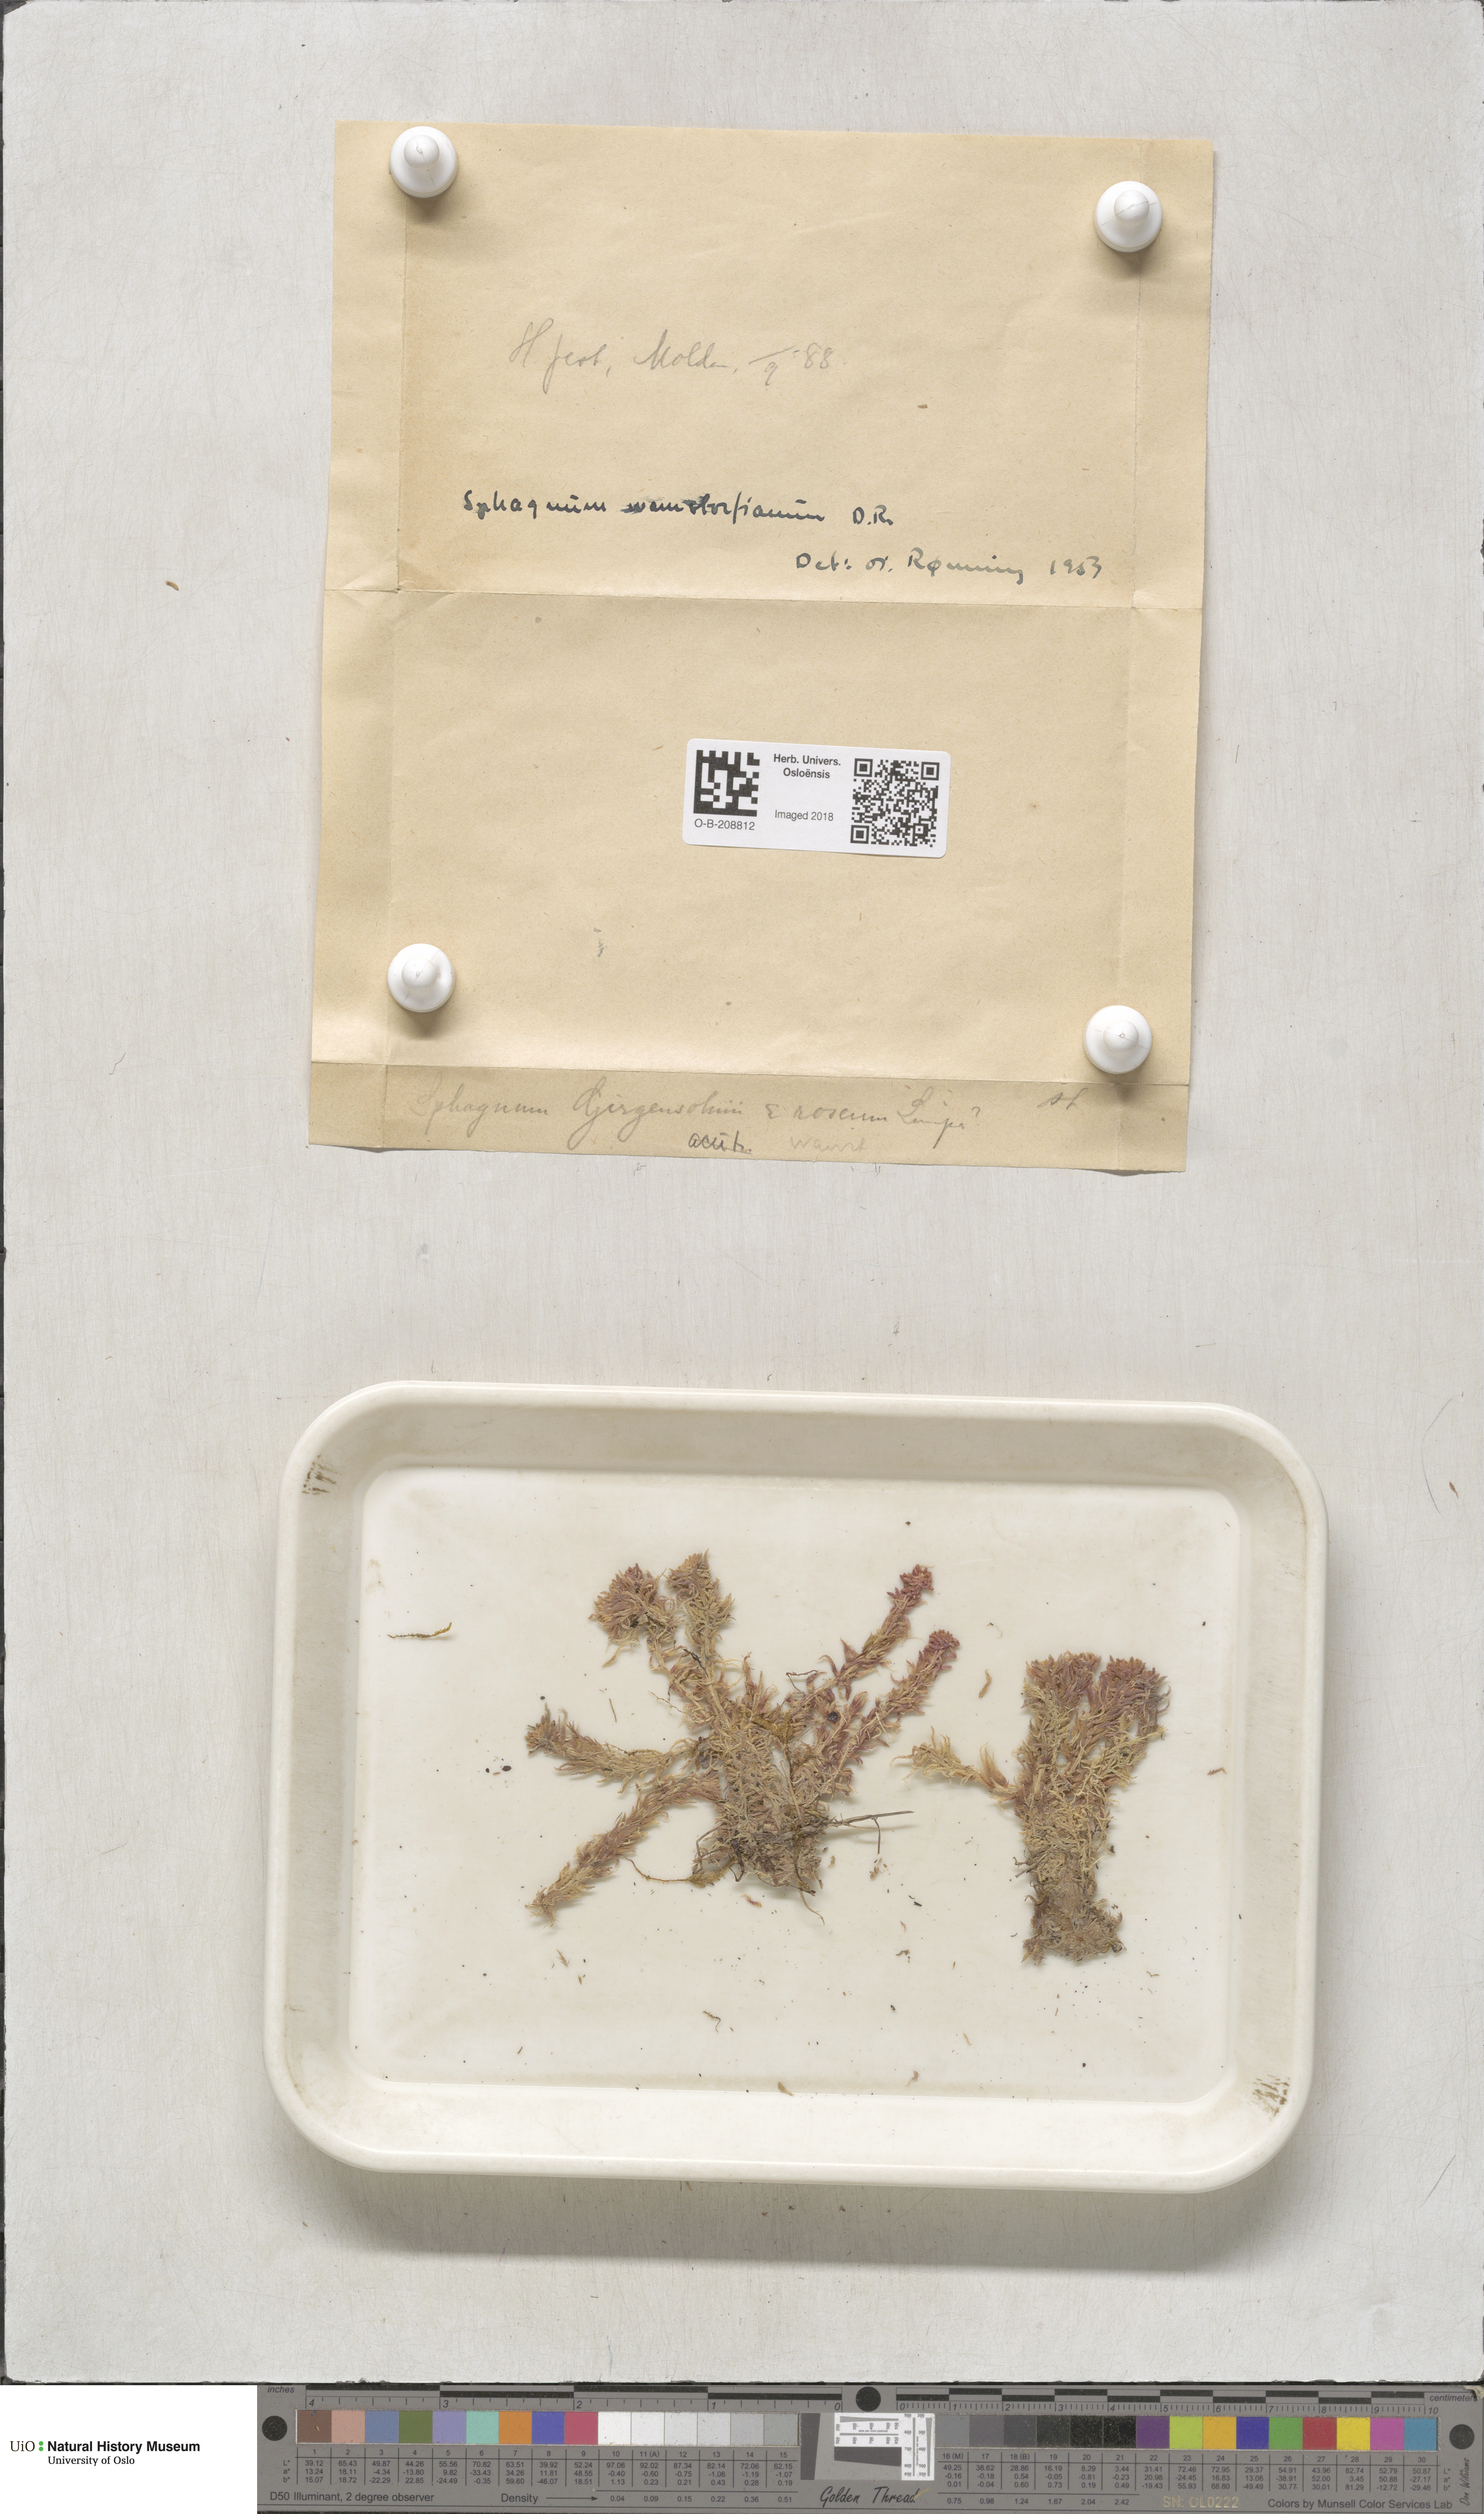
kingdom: Plantae
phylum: Bryophyta
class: Sphagnopsida
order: Sphagnales
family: Sphagnaceae
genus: Sphagnum
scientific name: Sphagnum warnstorfii
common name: Warnstorf's peat moss
